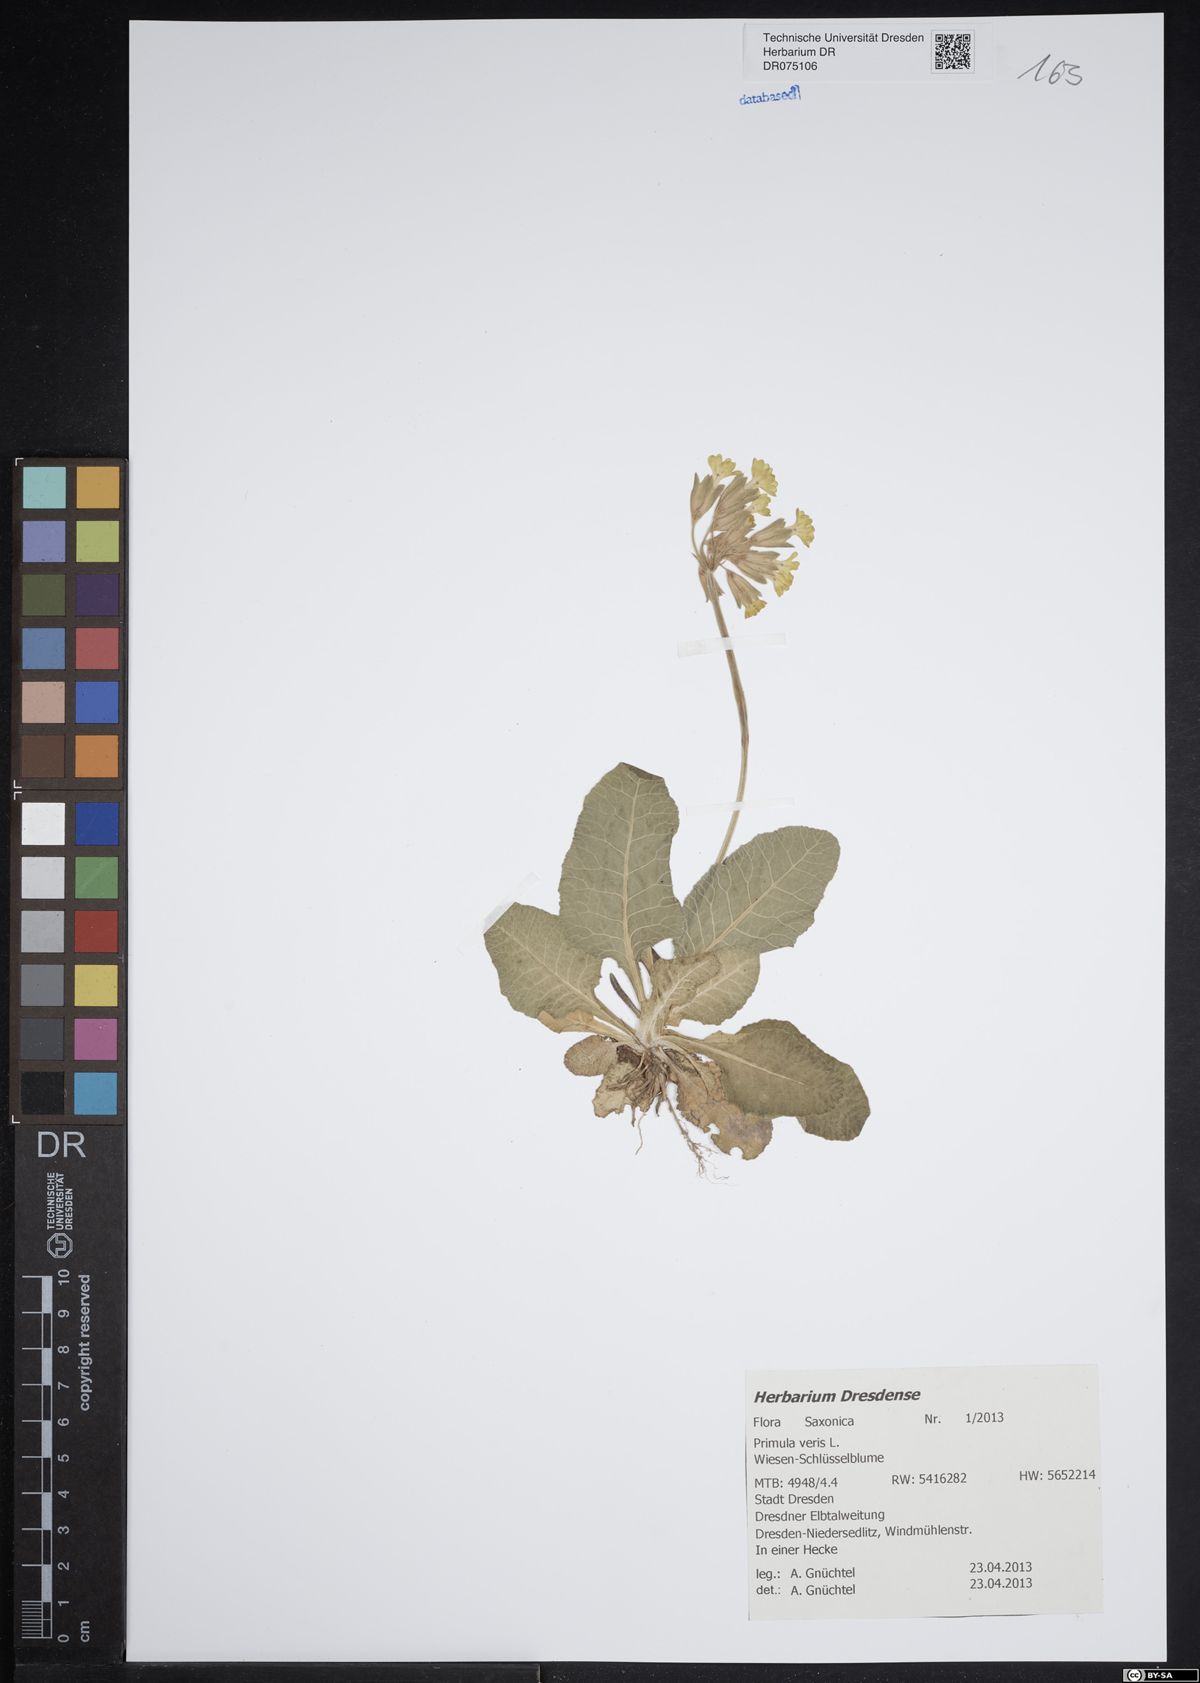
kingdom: Plantae
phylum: Tracheophyta
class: Magnoliopsida
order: Ericales
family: Primulaceae
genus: Primula
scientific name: Primula veris
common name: Cowslip
